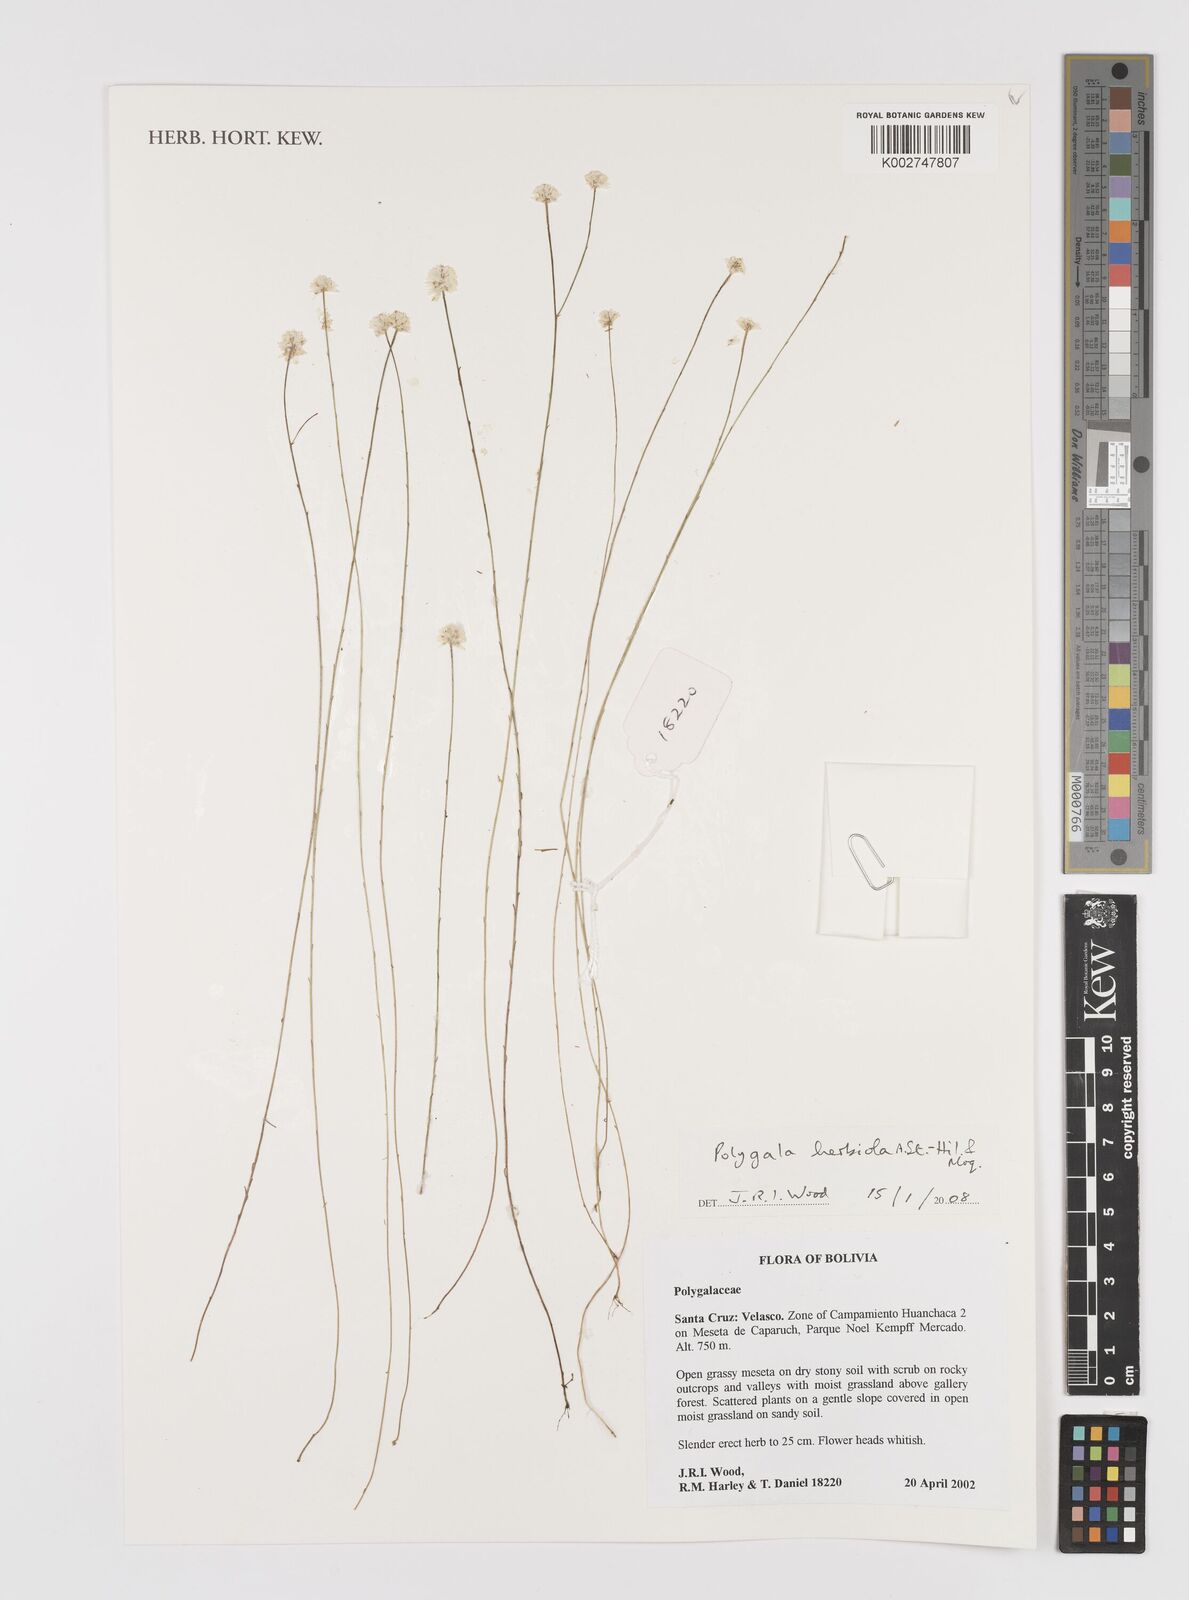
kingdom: Plantae
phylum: Tracheophyta
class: Magnoliopsida
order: Fabales
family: Polygalaceae
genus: Polygala
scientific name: Polygala herbiola
